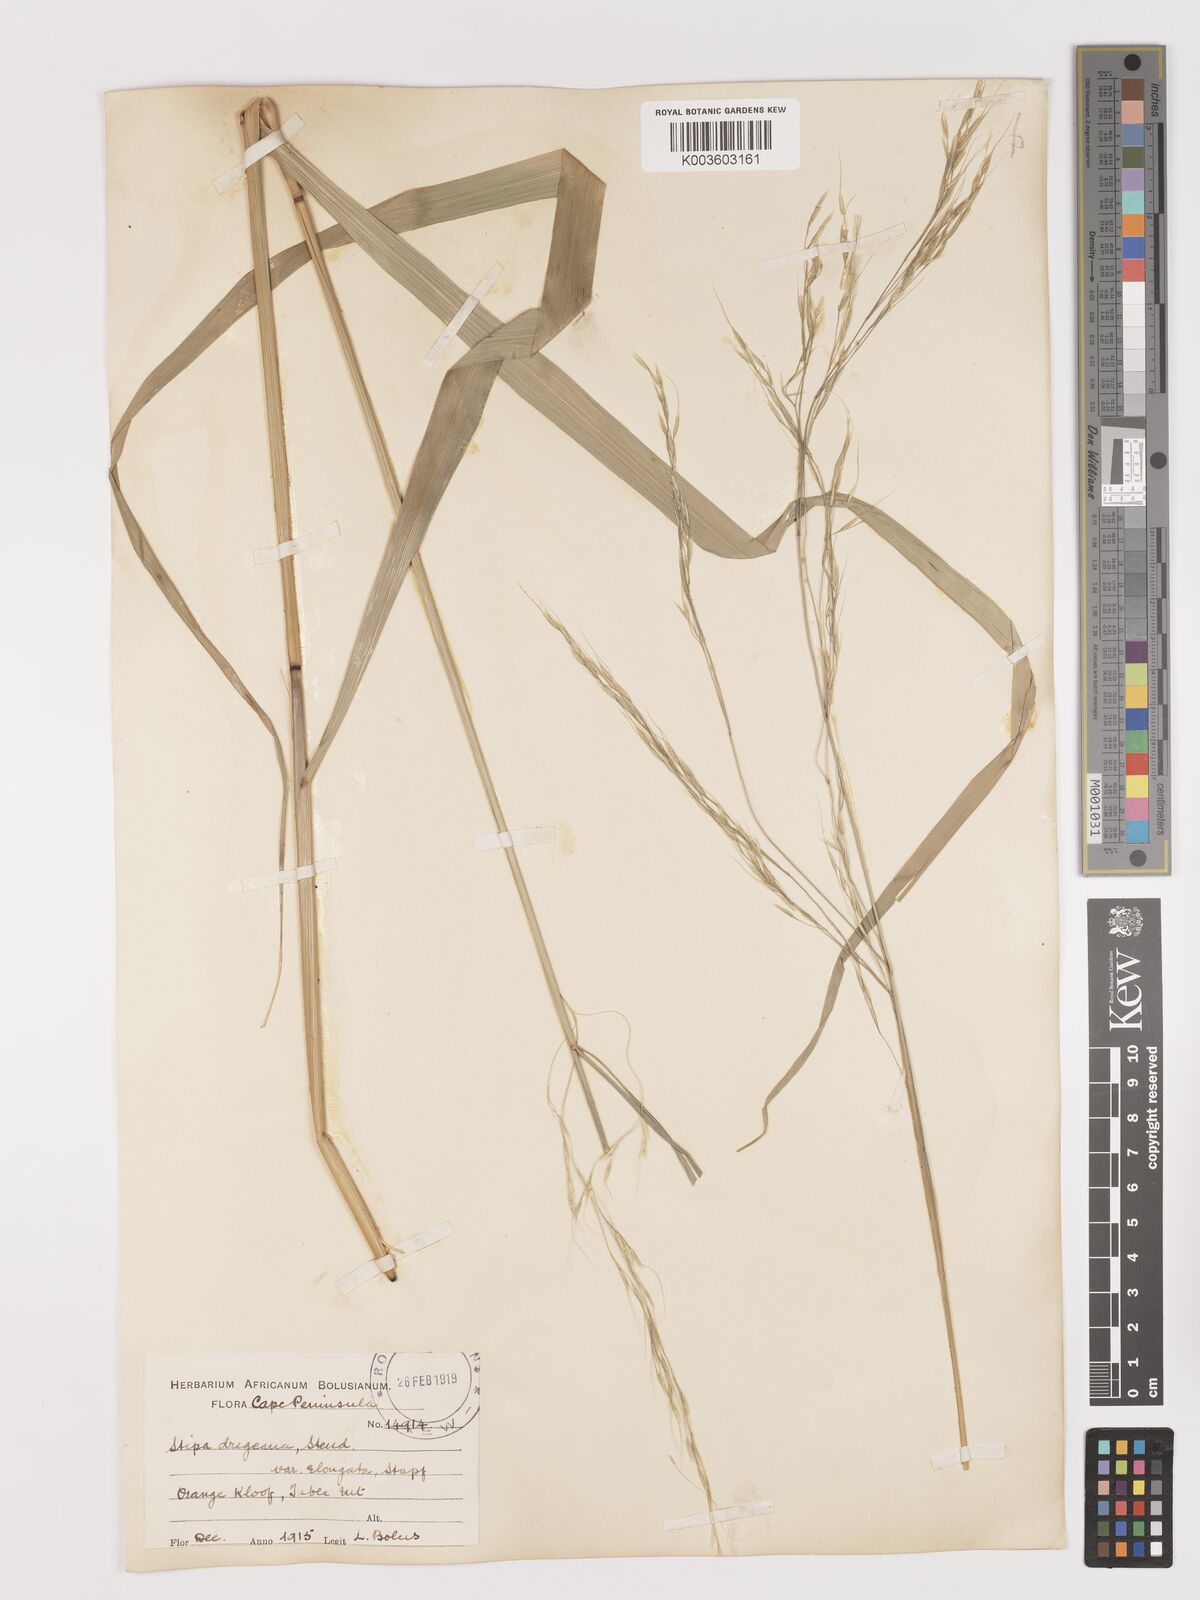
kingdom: Plantae
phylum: Tracheophyta
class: Liliopsida
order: Poales
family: Poaceae
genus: Stipa
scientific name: Stipa dregeana
